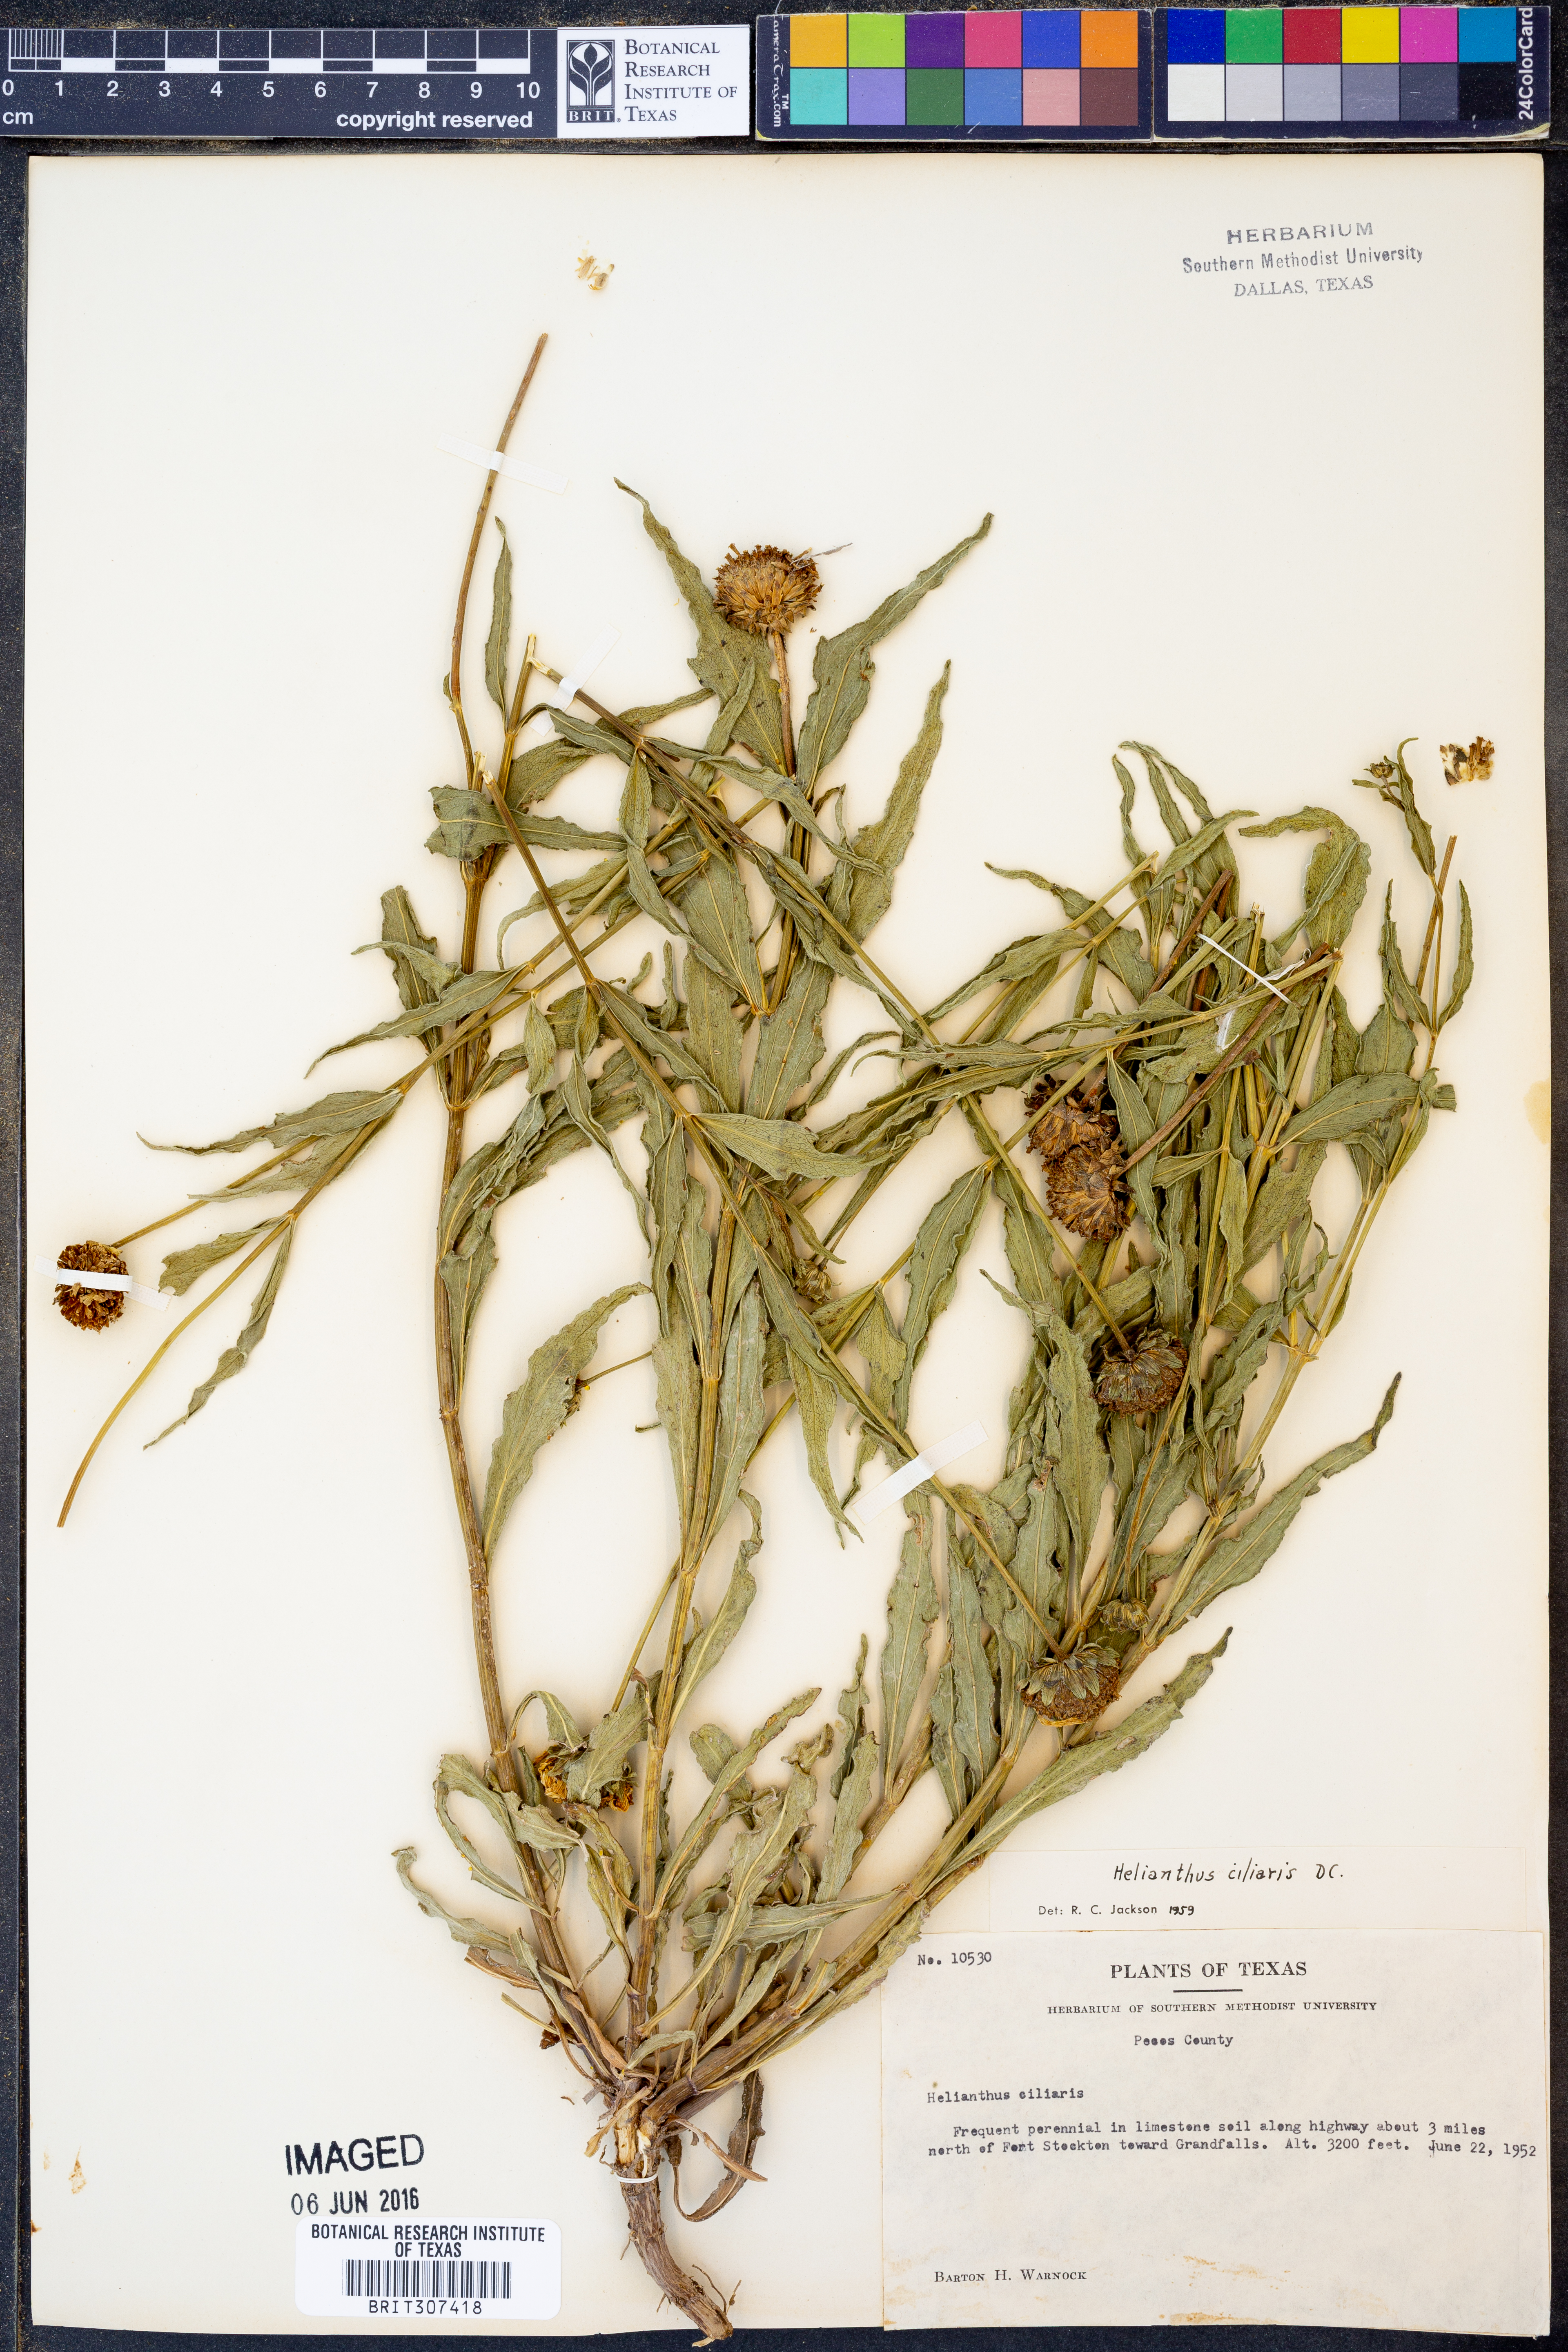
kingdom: Plantae
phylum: Tracheophyta
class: Magnoliopsida
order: Asterales
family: Asteraceae
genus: Helianthus
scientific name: Helianthus ciliaris
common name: Texas blueweed
